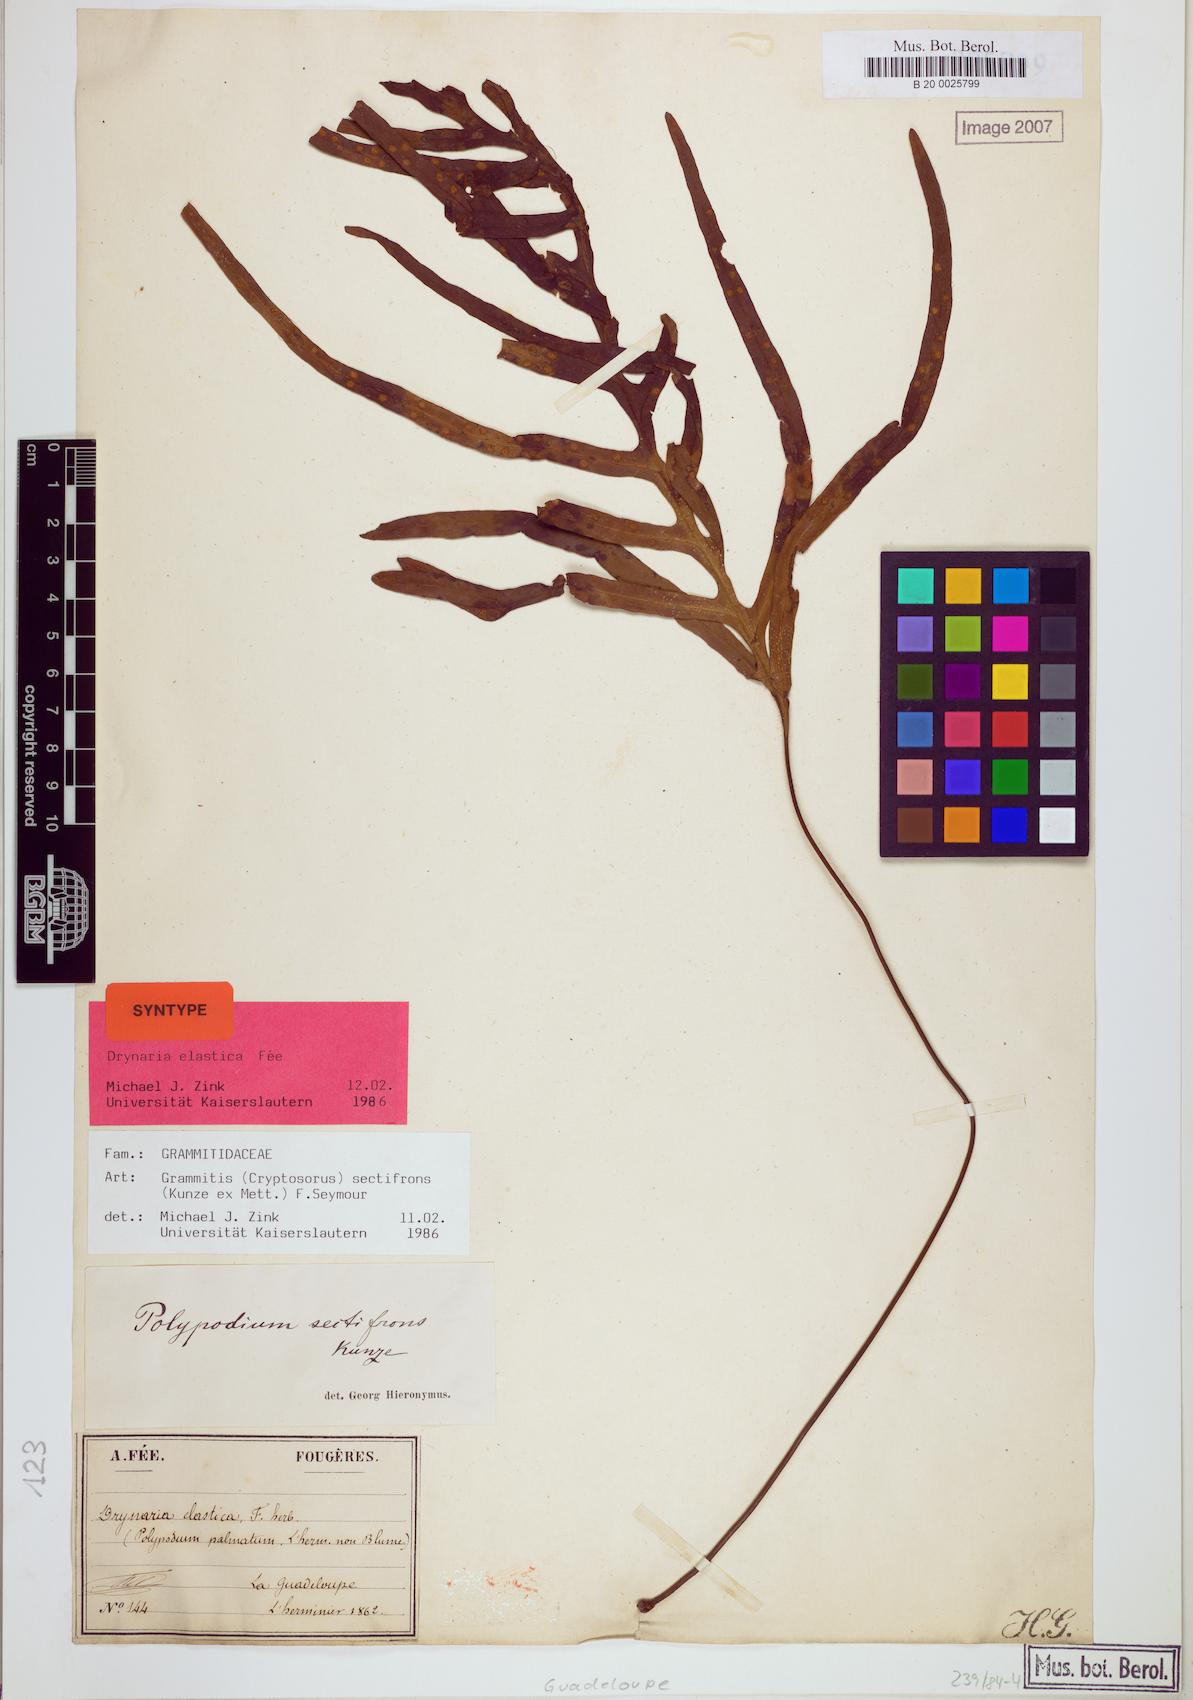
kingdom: Plantae
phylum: Tracheophyta
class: Polypodiopsida
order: Polypodiales
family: Polypodiaceae
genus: Enterosora
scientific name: Enterosora sectifrons
